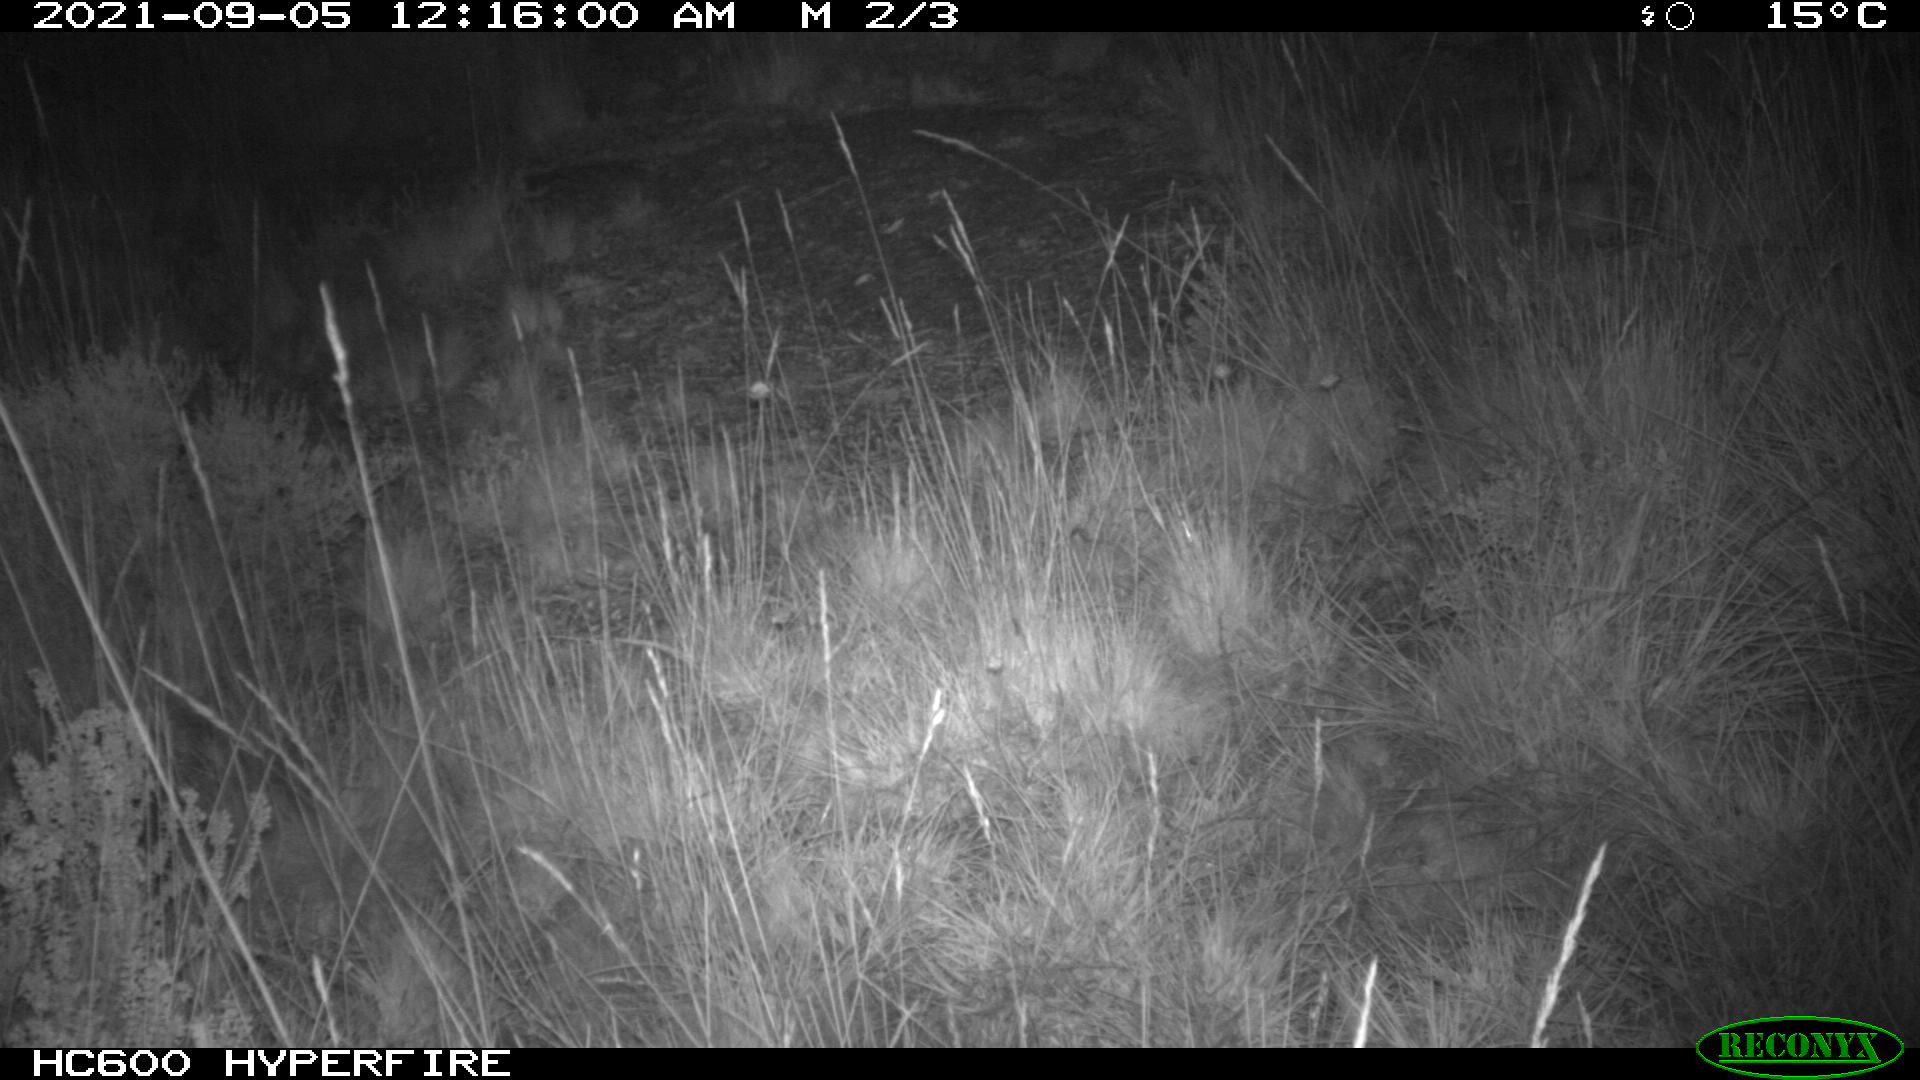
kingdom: Animalia
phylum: Chordata
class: Mammalia
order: Artiodactyla
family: Suidae
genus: Sus
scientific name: Sus scrofa
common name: Wild boar
